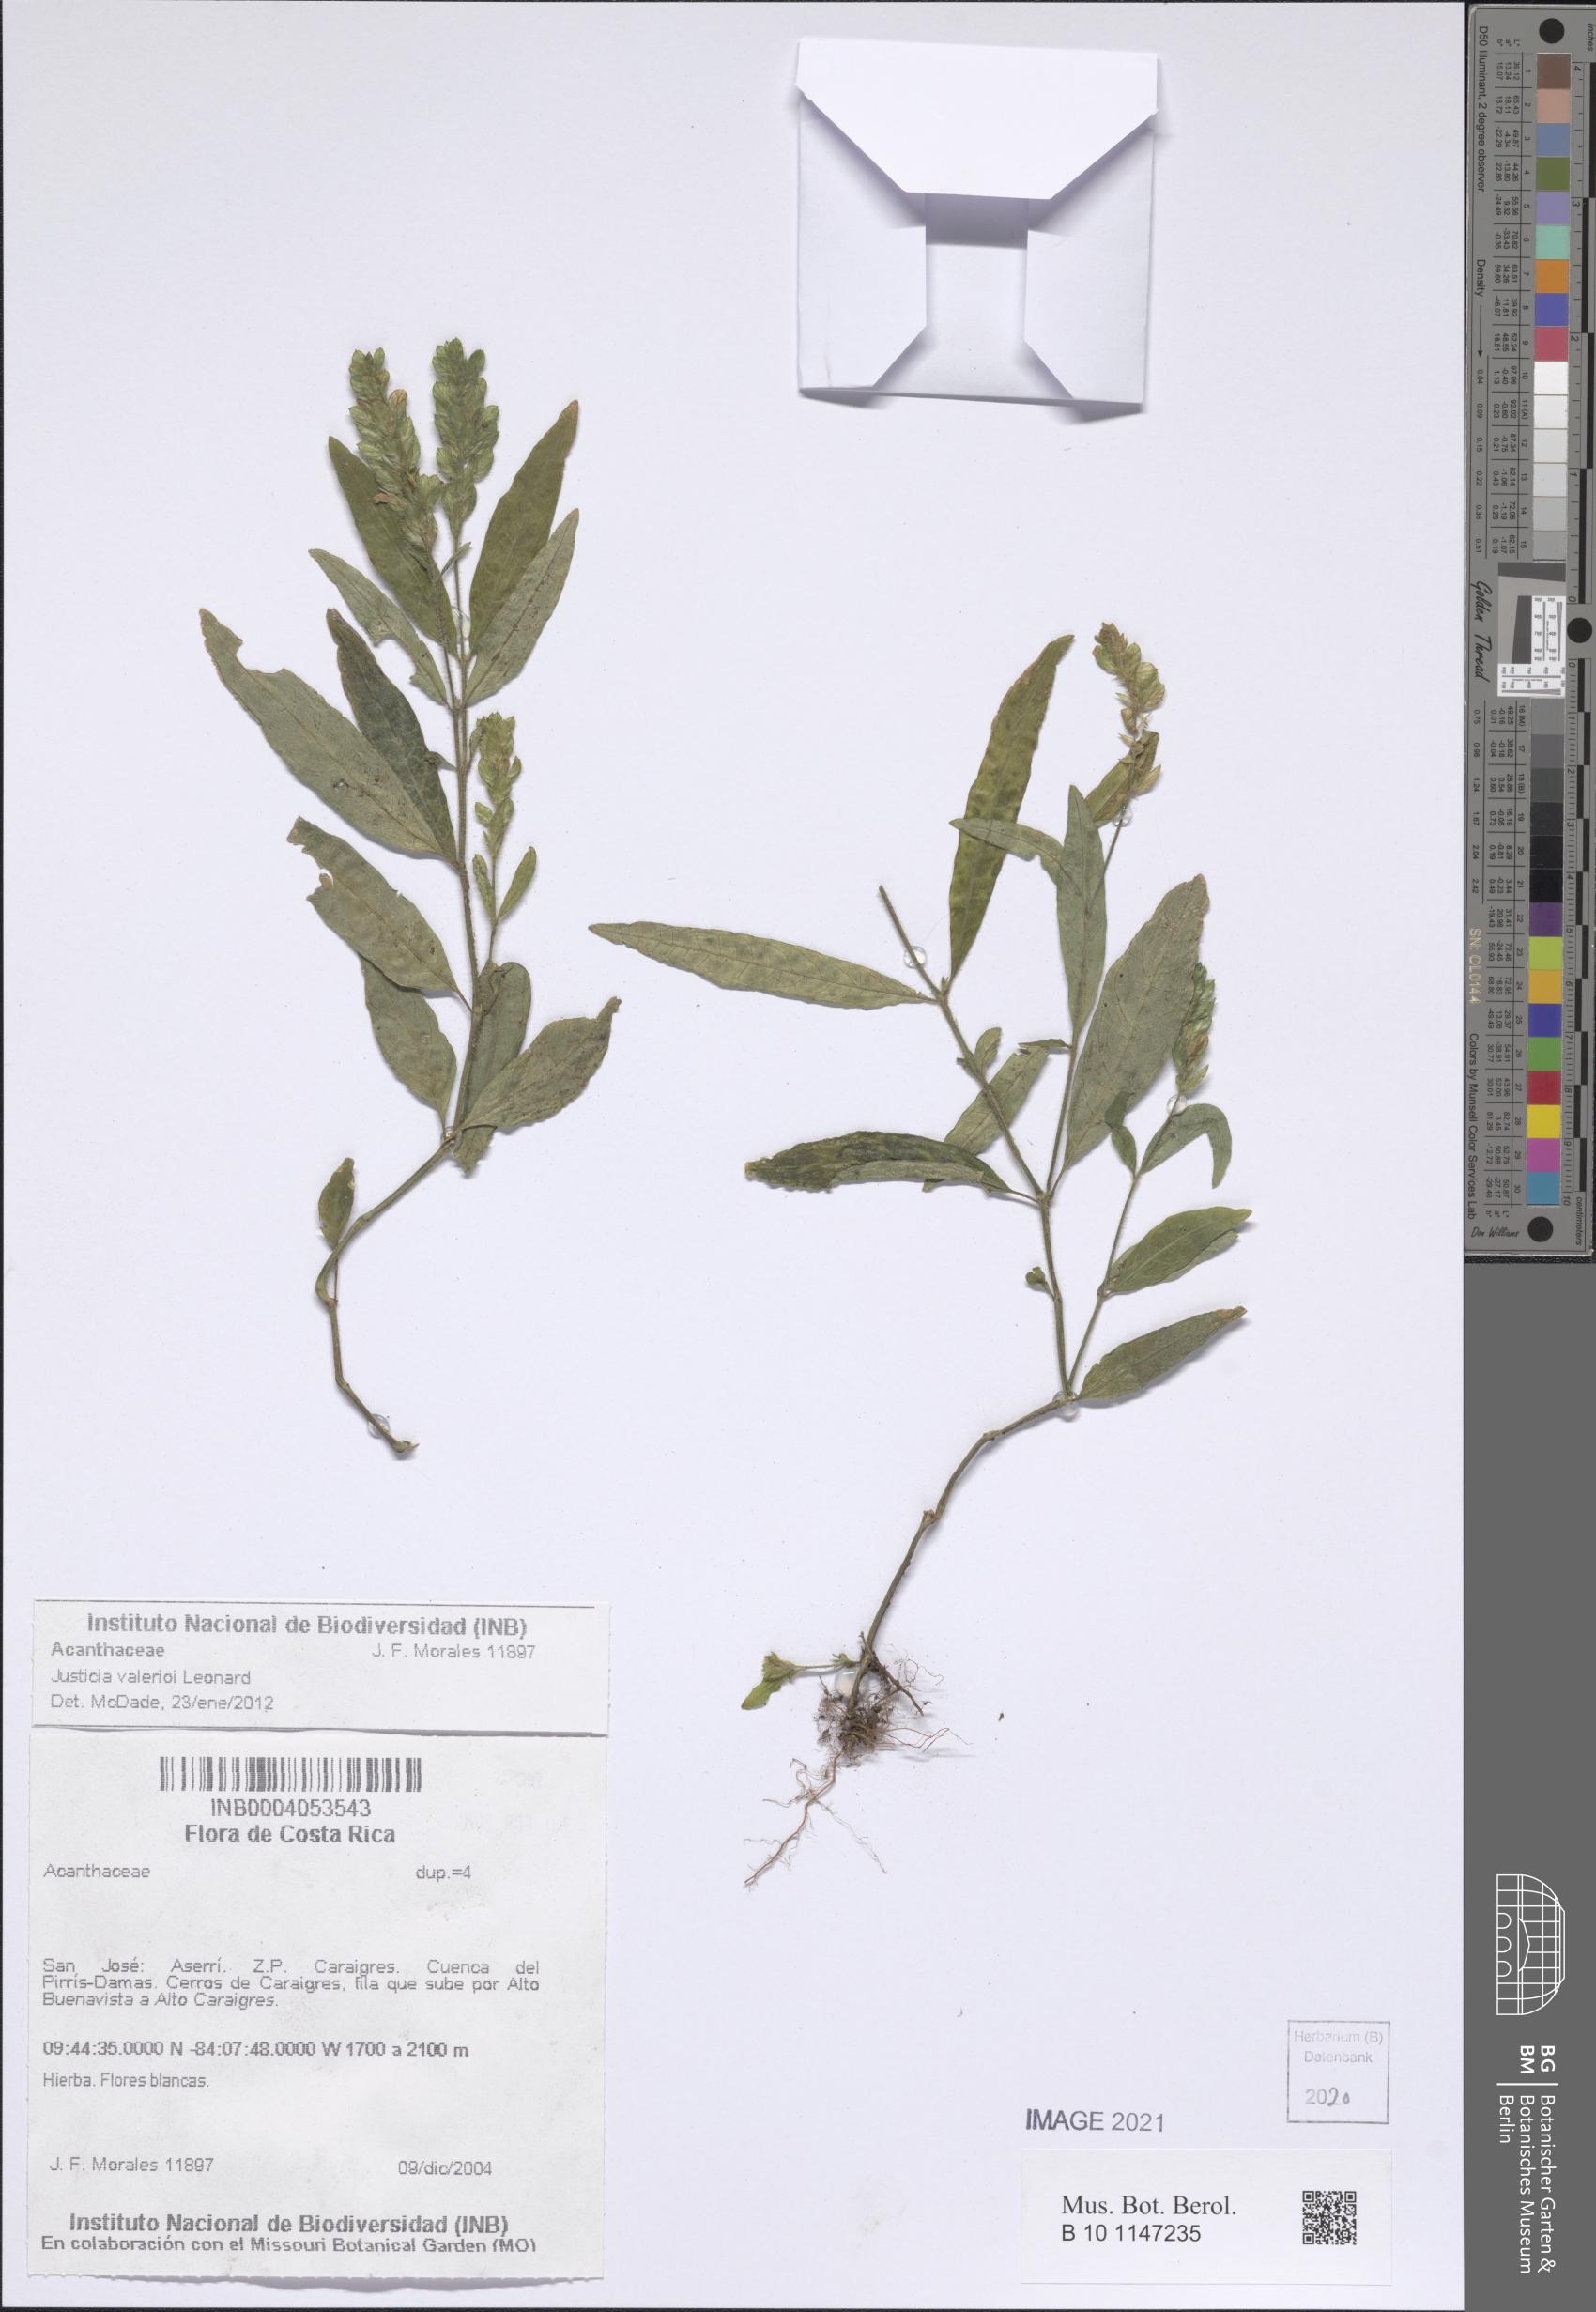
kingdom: Plantae
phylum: Tracheophyta
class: Magnoliopsida
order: Lamiales
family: Acanthaceae
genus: Justicia
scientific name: Justicia valerioi
